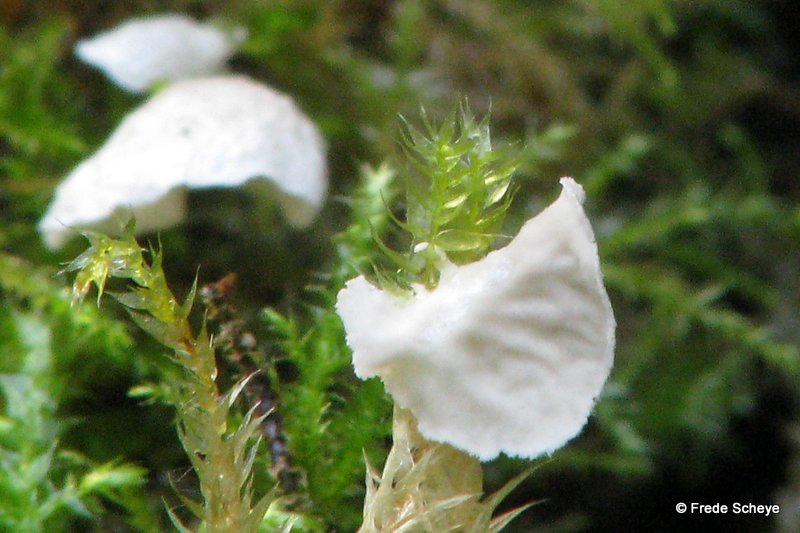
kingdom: Fungi
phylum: Basidiomycota
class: Agaricomycetes
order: Agaricales
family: Hygrophoraceae
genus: Arrhenia
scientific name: Arrhenia retiruga
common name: lille fontænehat
